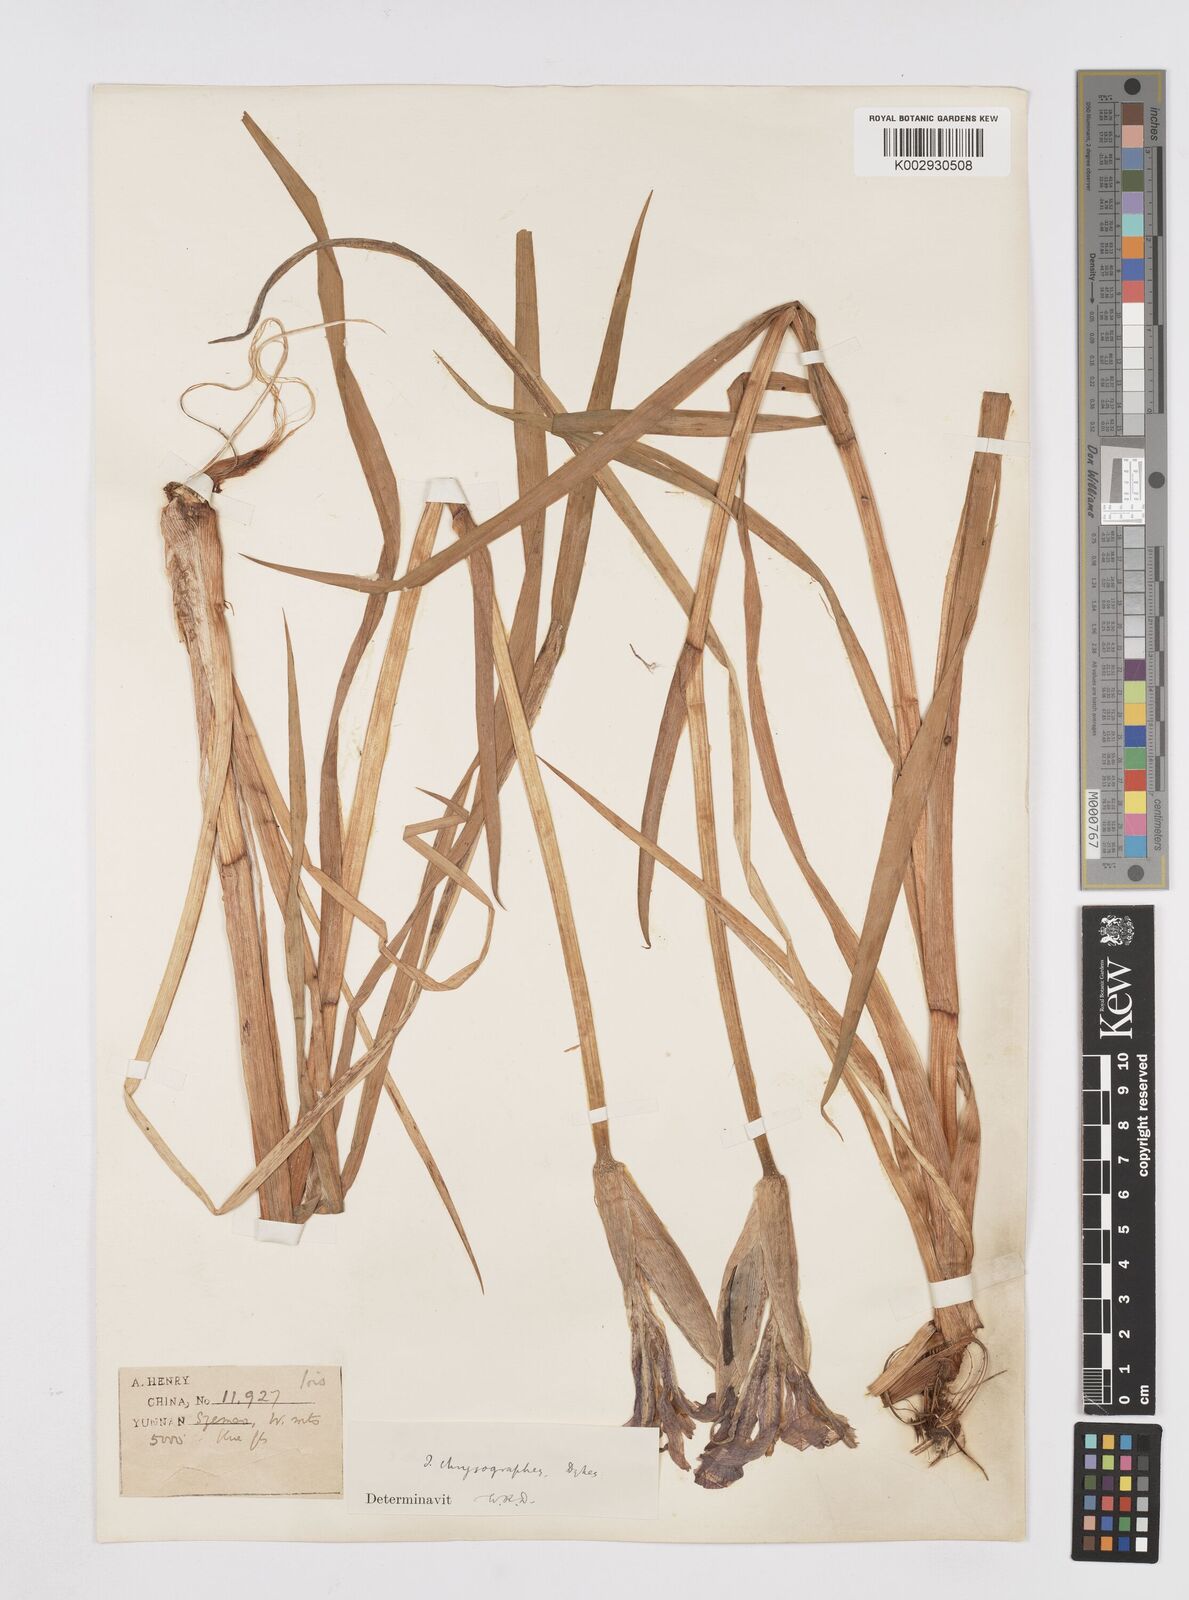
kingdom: Plantae
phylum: Tracheophyta
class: Liliopsida
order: Asparagales
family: Iridaceae
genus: Iris
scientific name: Iris chrysographes
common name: Gold-vein iris
